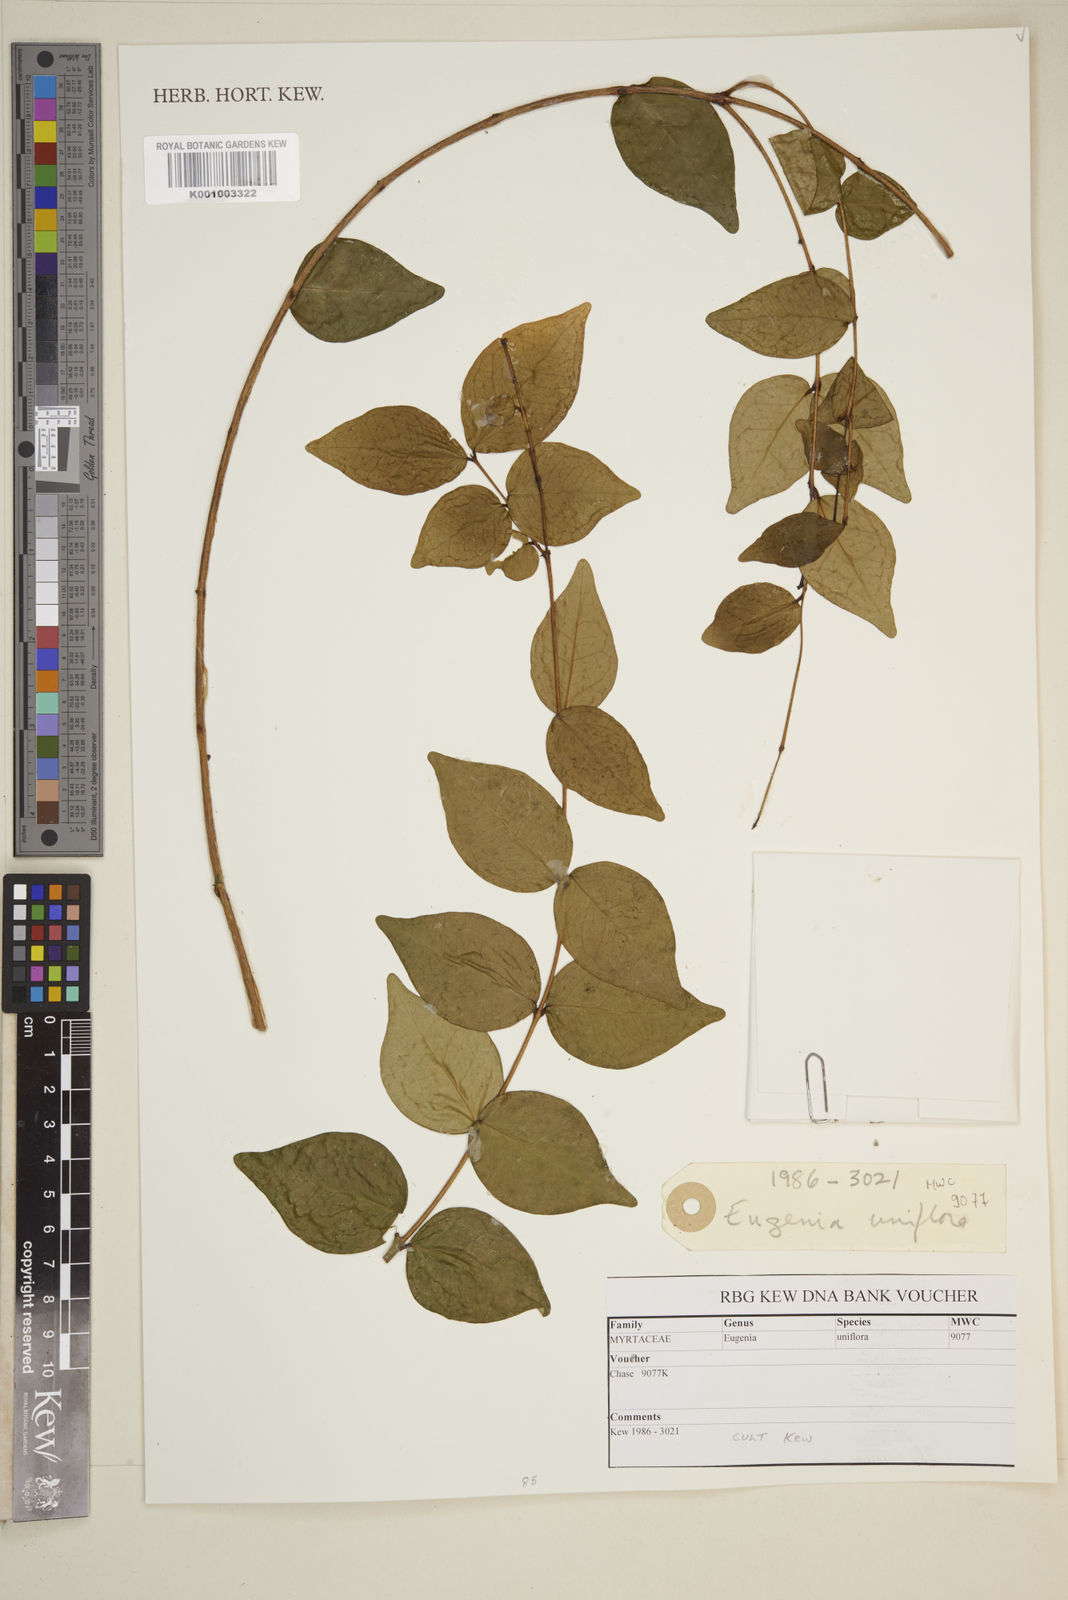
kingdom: Plantae
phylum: Tracheophyta
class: Magnoliopsida
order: Myrtales
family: Myrtaceae
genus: Eugenia
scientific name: Eugenia uniflora
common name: Surinam cherry
